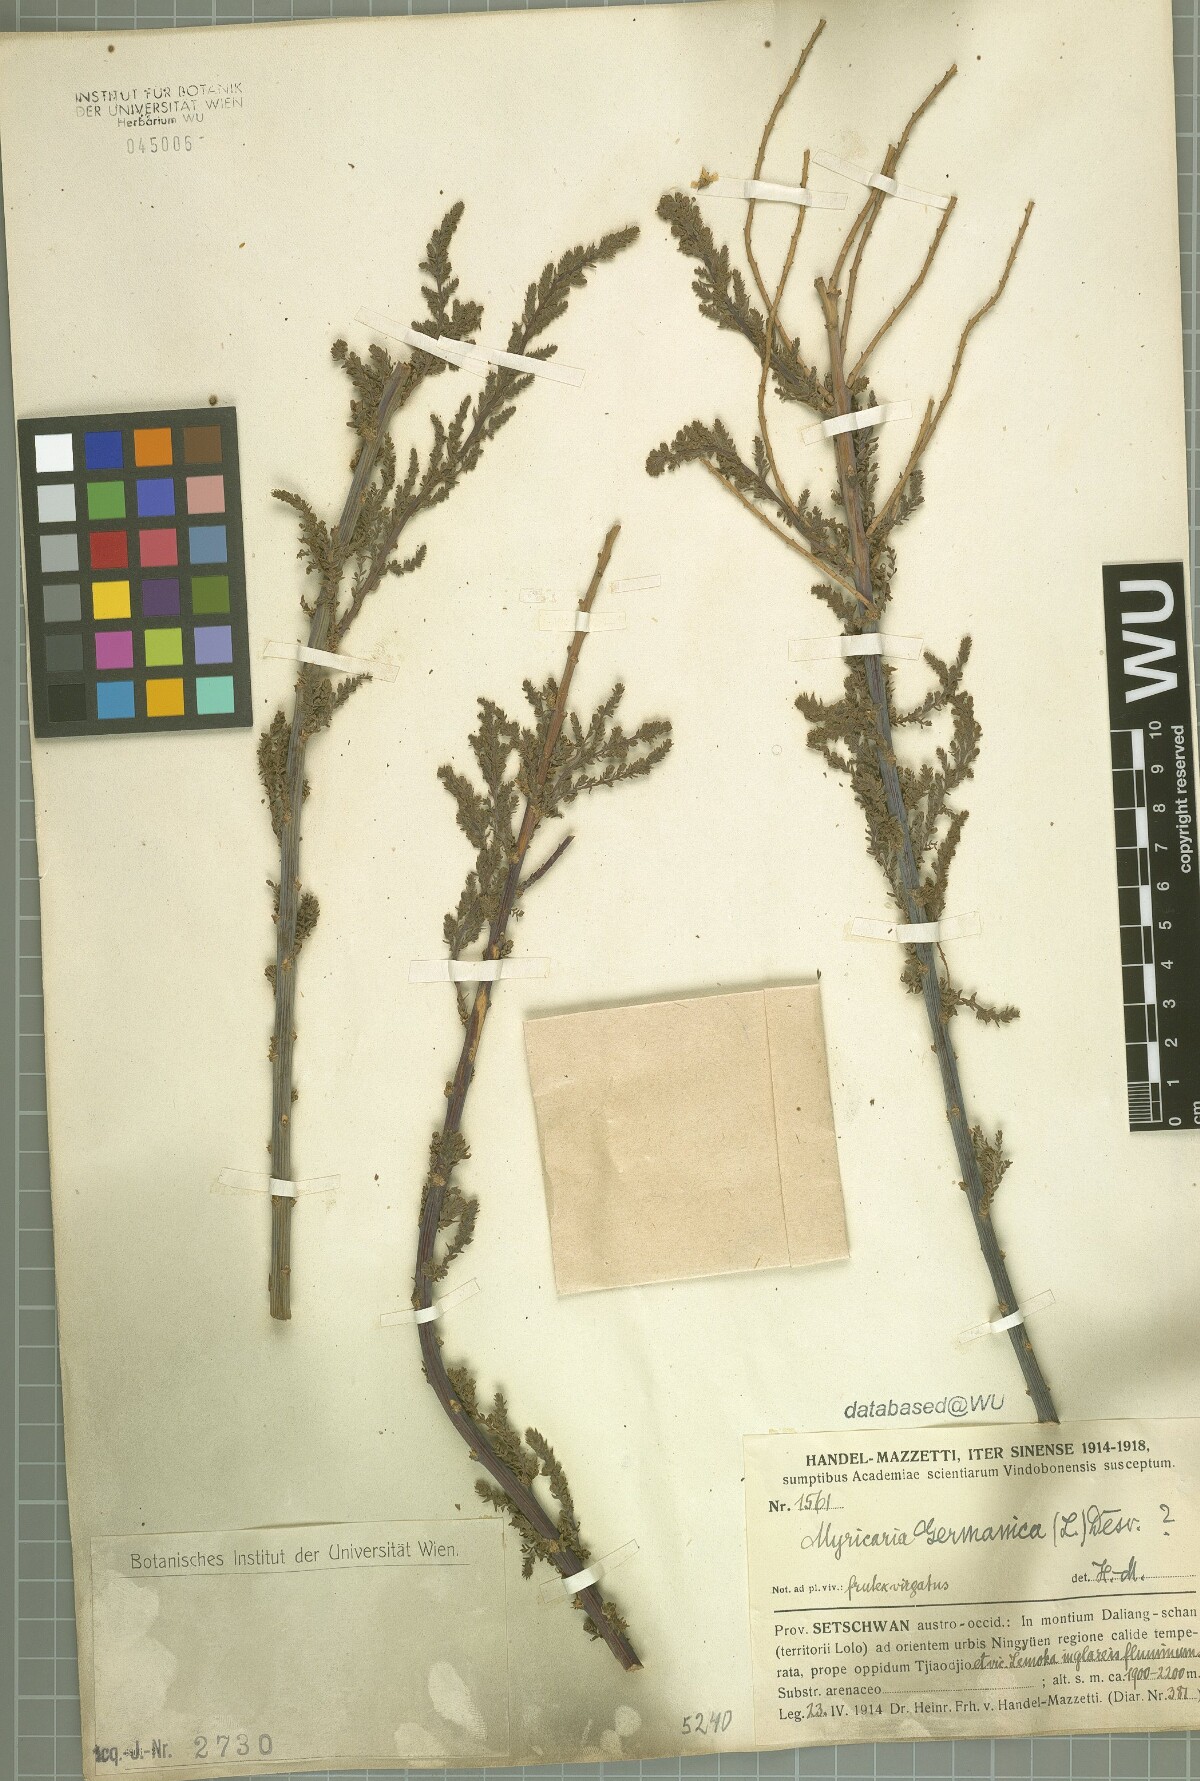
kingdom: Plantae
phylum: Tracheophyta
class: Magnoliopsida
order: Caryophyllales
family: Tamaricaceae
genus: Myricaria
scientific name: Myricaria germanica
